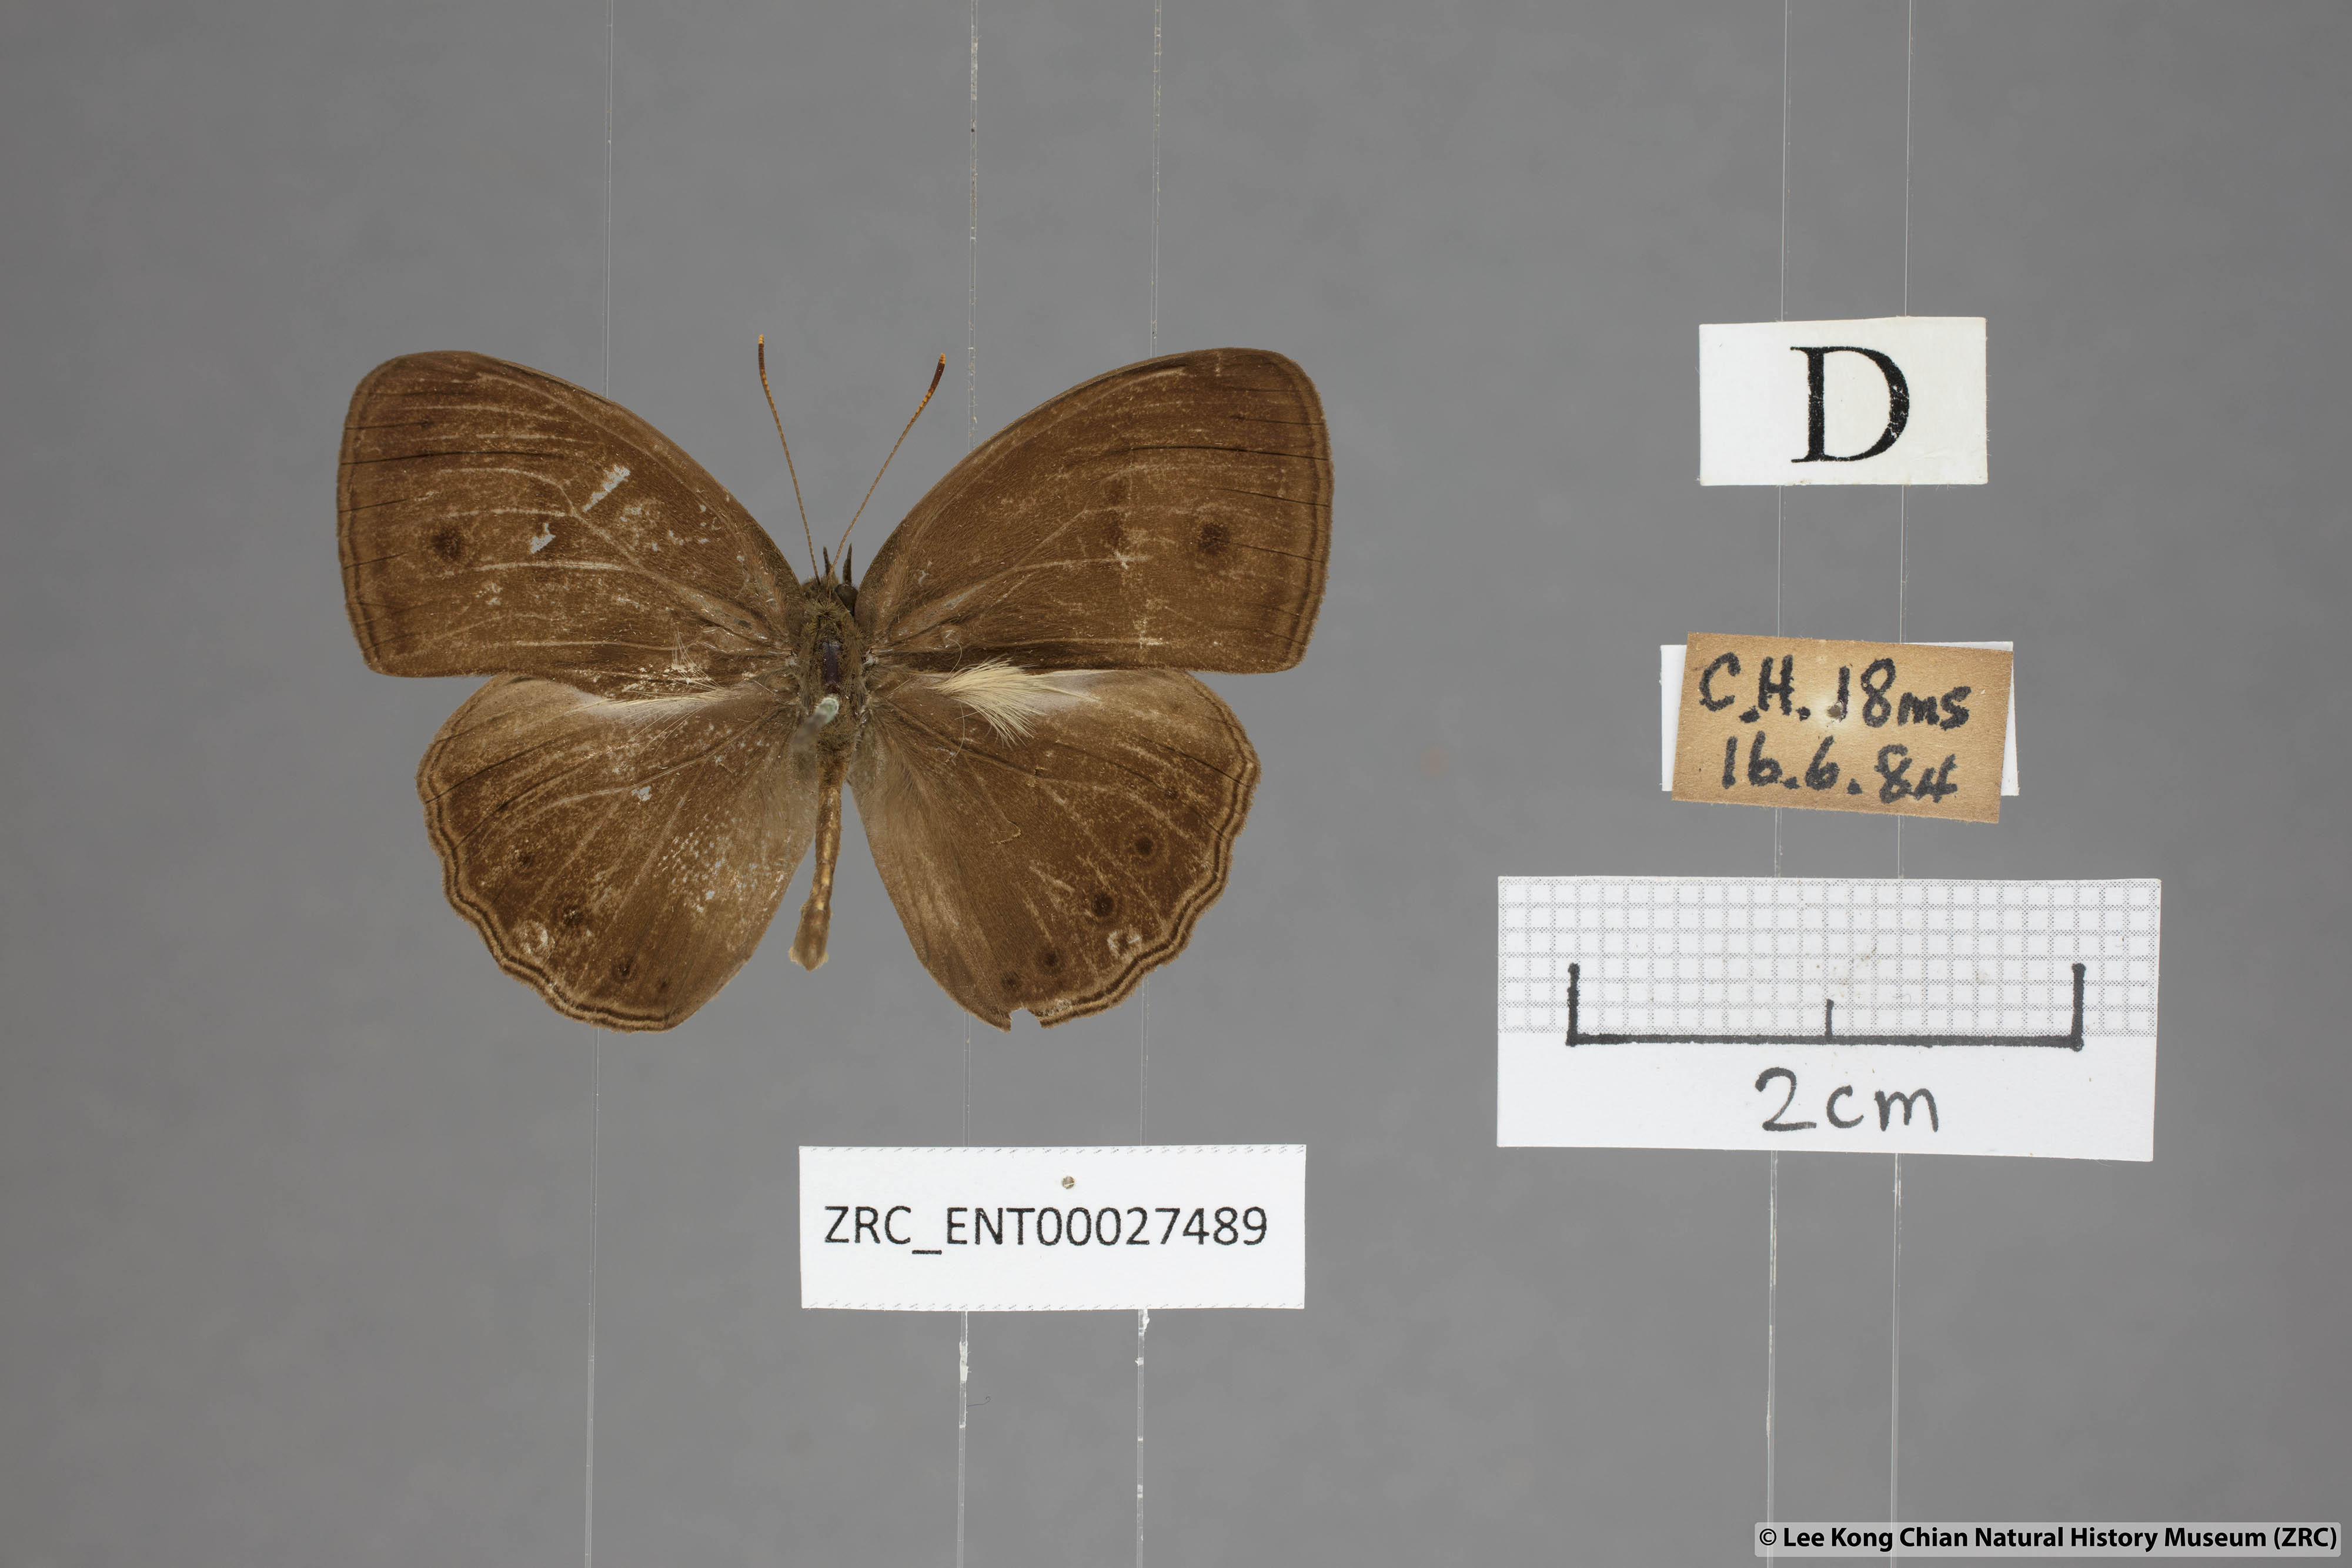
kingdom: Animalia
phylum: Arthropoda
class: Insecta
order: Lepidoptera
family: Nymphalidae
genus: Mycalesis
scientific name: Mycalesis fuscum
